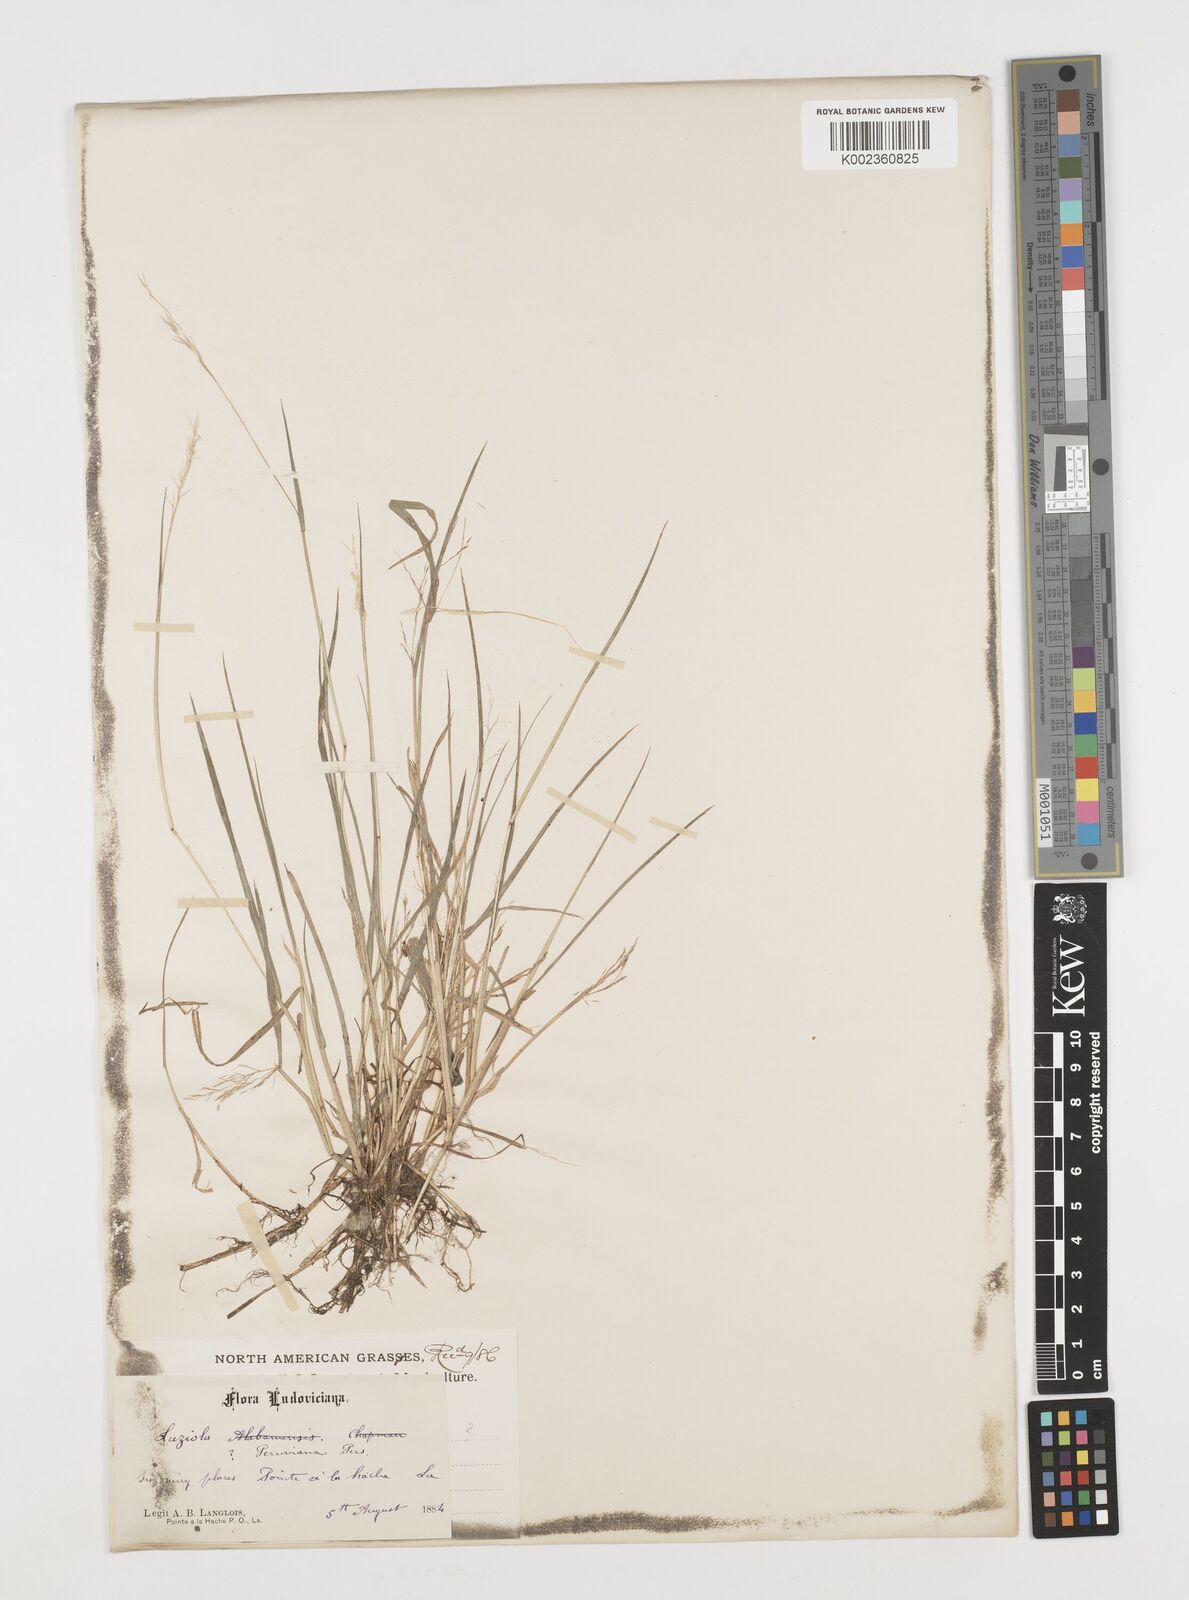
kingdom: Plantae
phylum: Tracheophyta
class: Liliopsida
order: Poales
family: Poaceae
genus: Luziola
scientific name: Luziola
